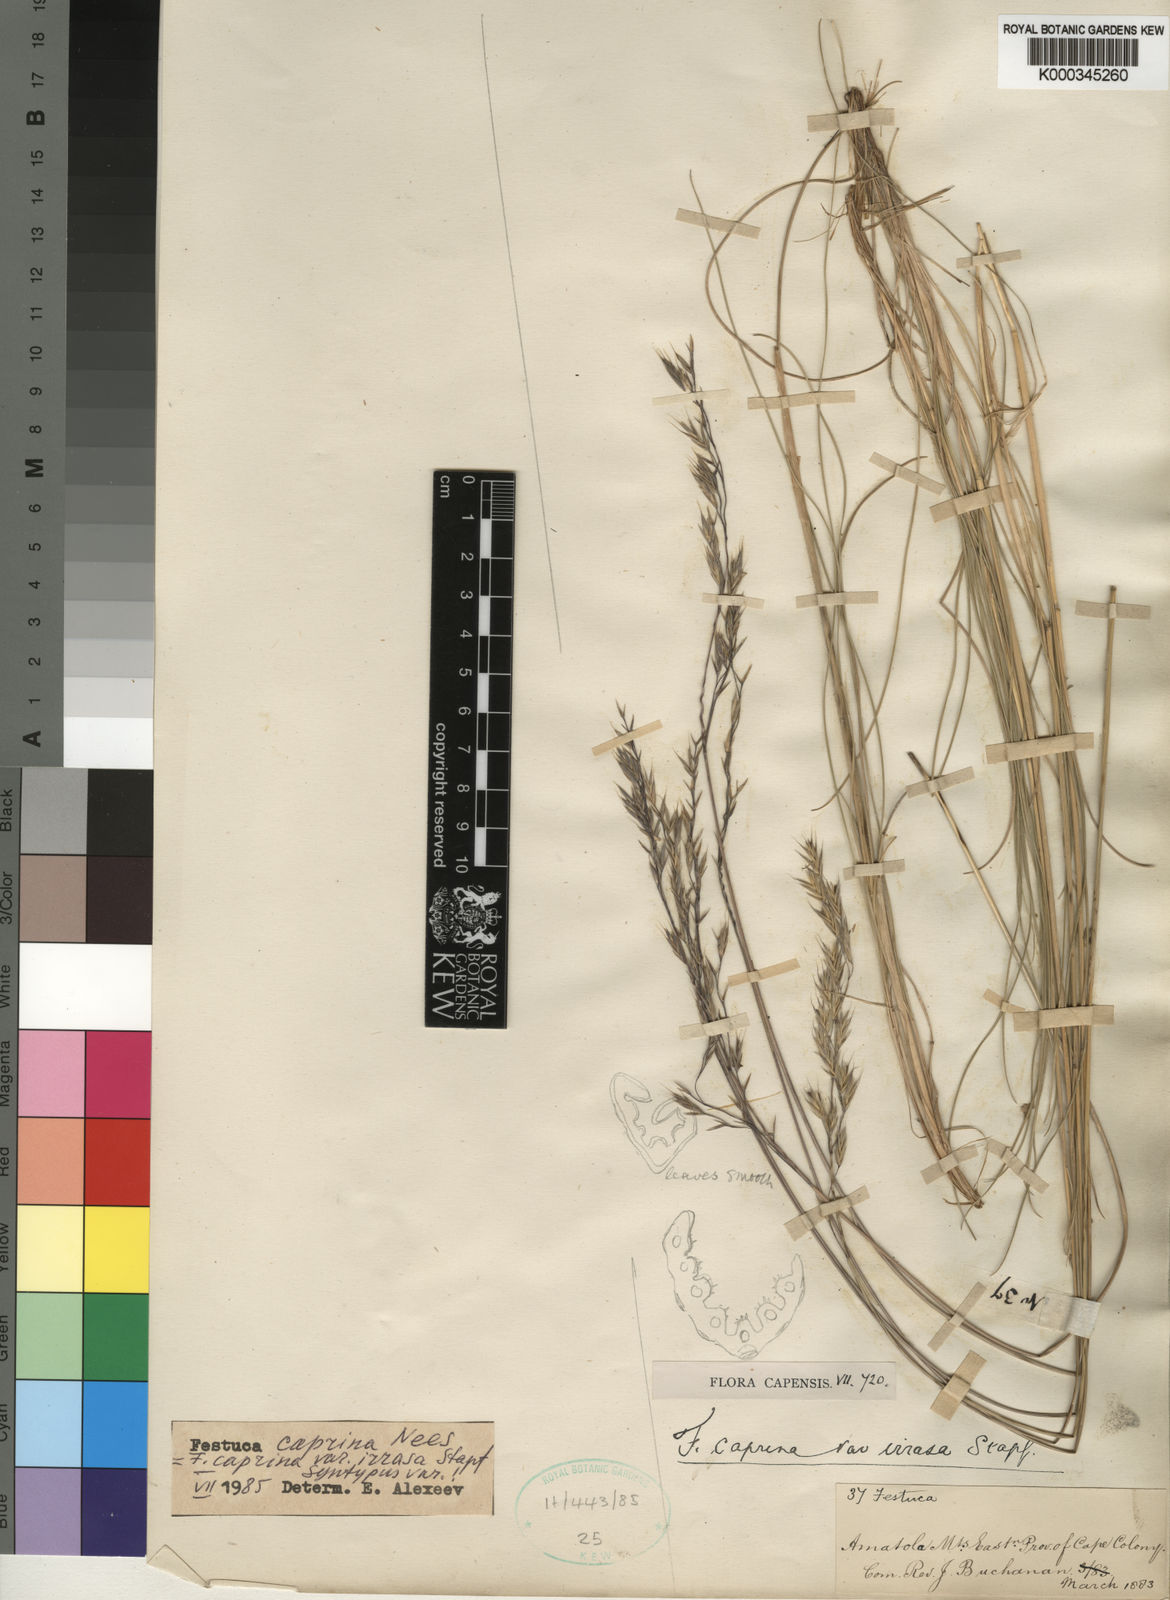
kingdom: Plantae
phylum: Tracheophyta
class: Liliopsida
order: Poales
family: Poaceae
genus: Festuca
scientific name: Festuca caprina
